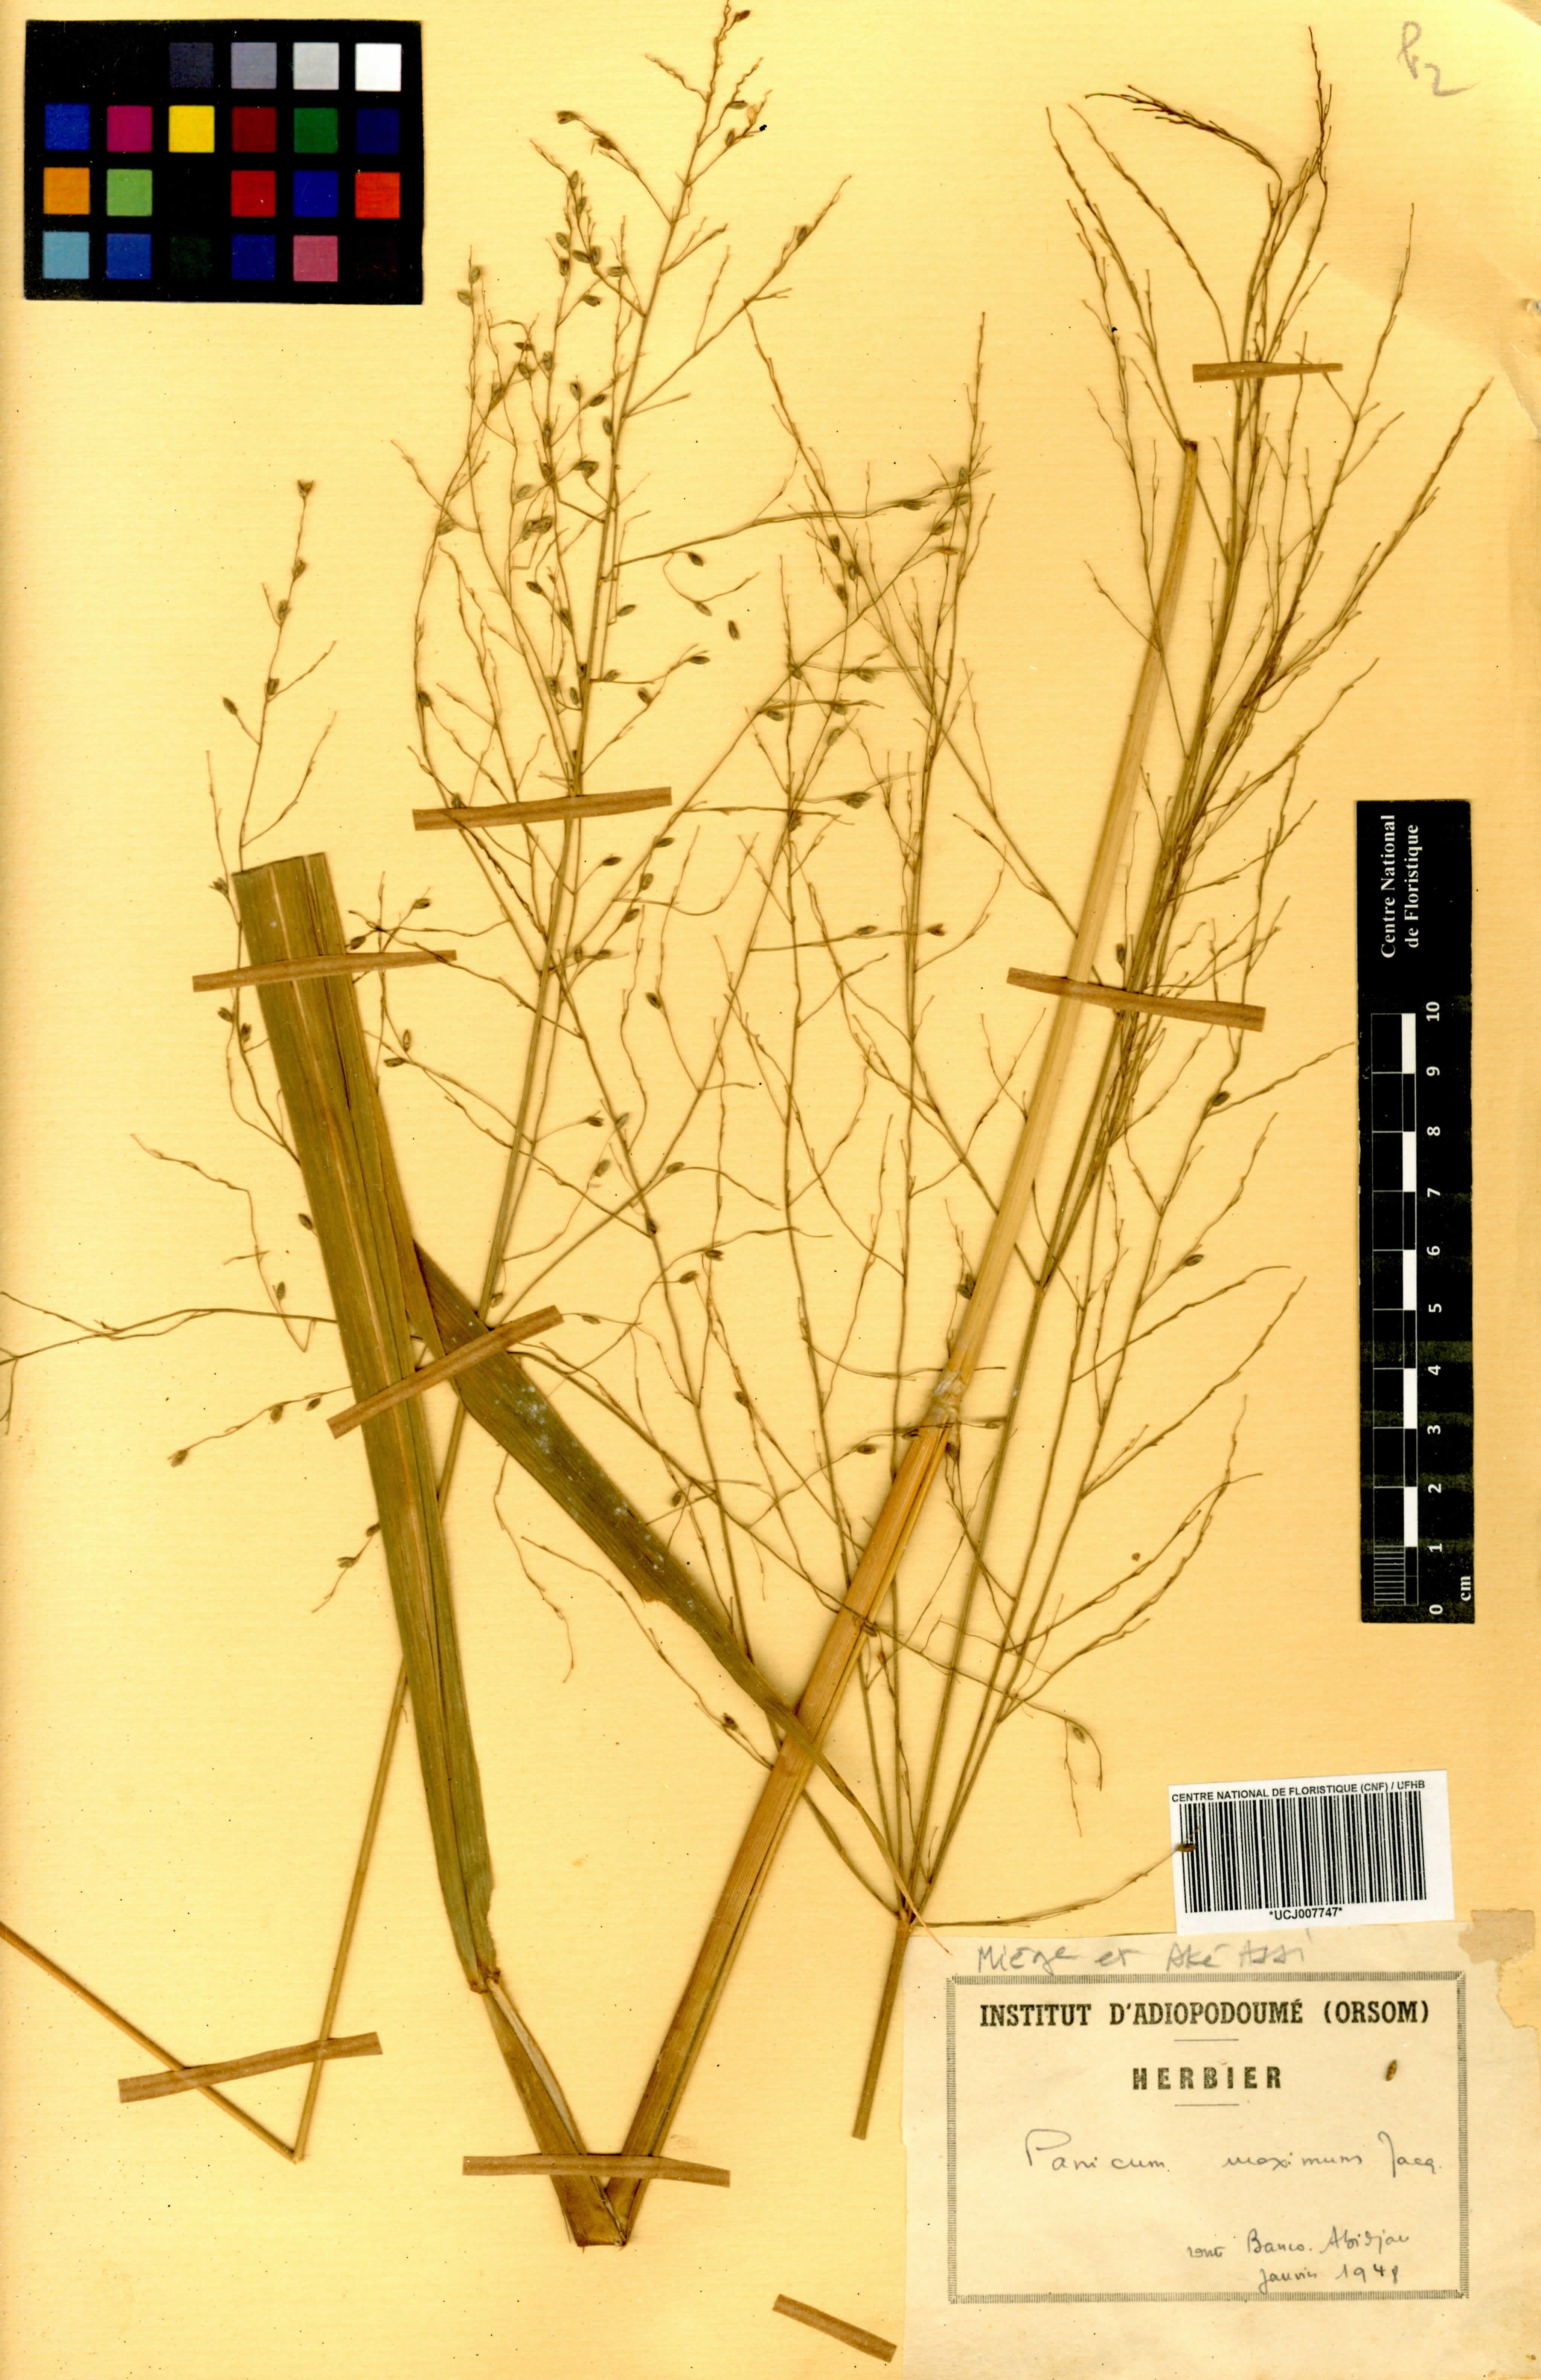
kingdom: Plantae
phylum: Tracheophyta
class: Liliopsida
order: Poales
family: Poaceae
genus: Megathyrsus
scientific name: Megathyrsus maximus
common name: Guineagrass
